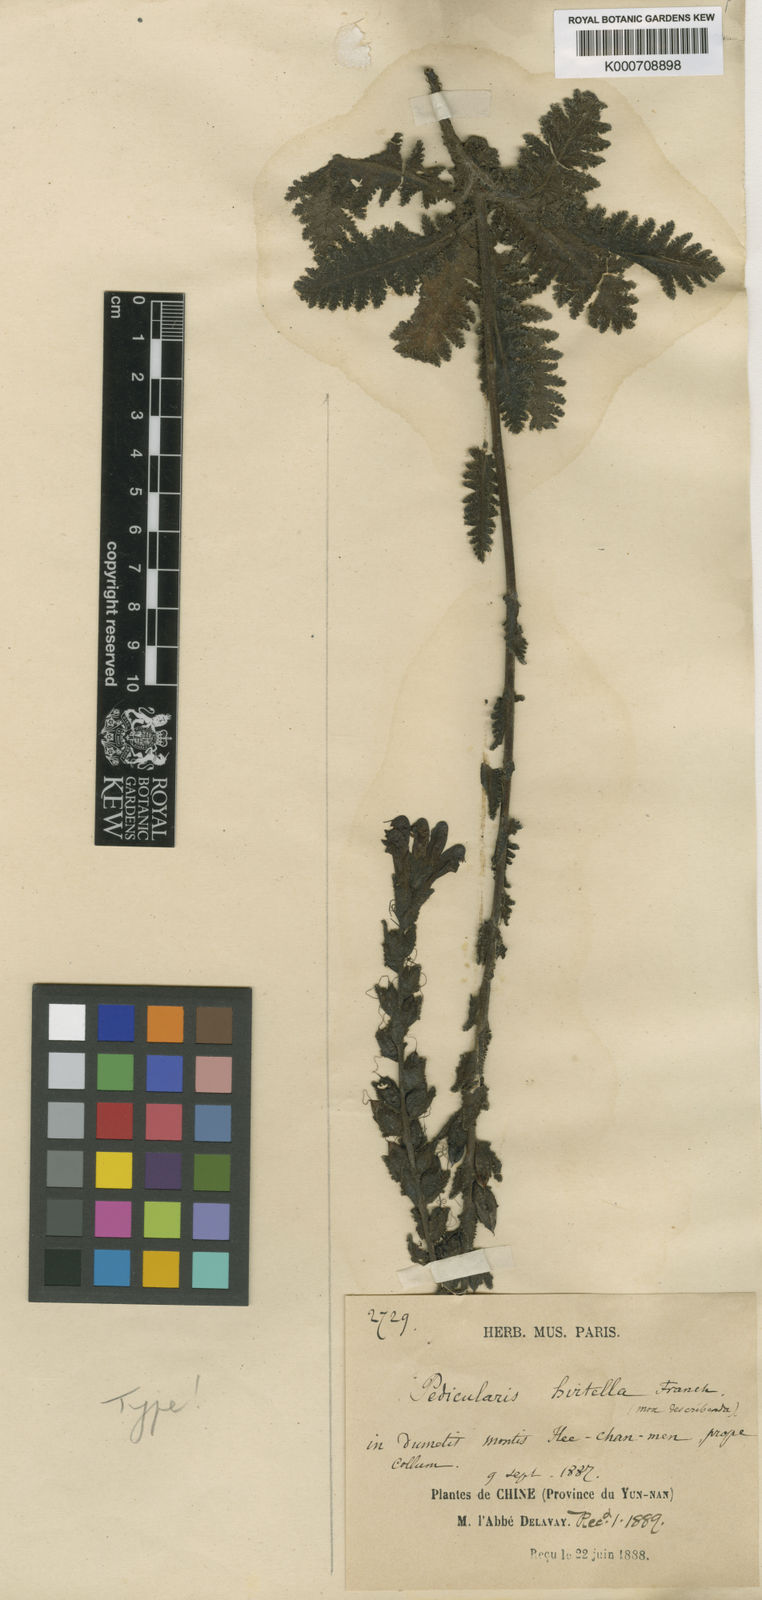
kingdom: Plantae
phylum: Tracheophyta
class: Magnoliopsida
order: Lamiales
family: Orobanchaceae
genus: Pedicularis
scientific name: Pedicularis
